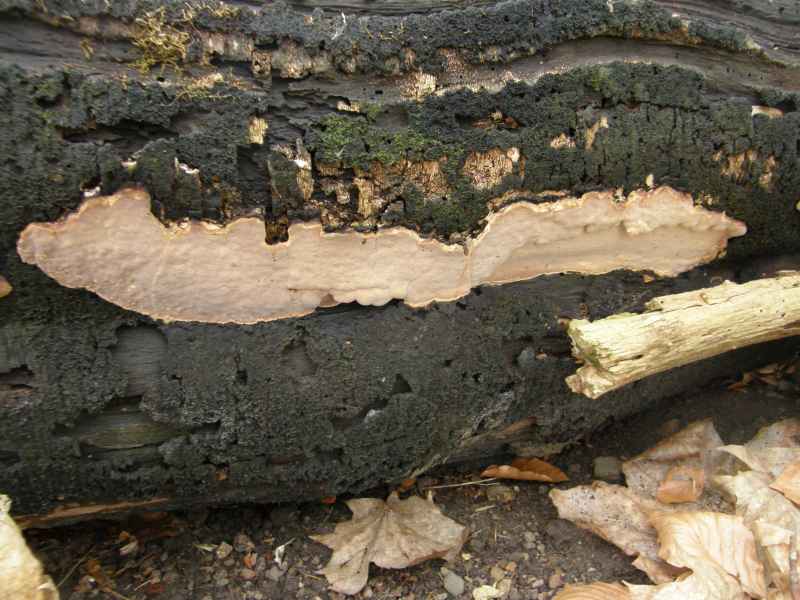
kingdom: Fungi
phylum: Basidiomycota
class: Agaricomycetes
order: Russulales
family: Peniophoraceae
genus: Scytinostroma
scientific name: Scytinostroma hemidichophyticum
